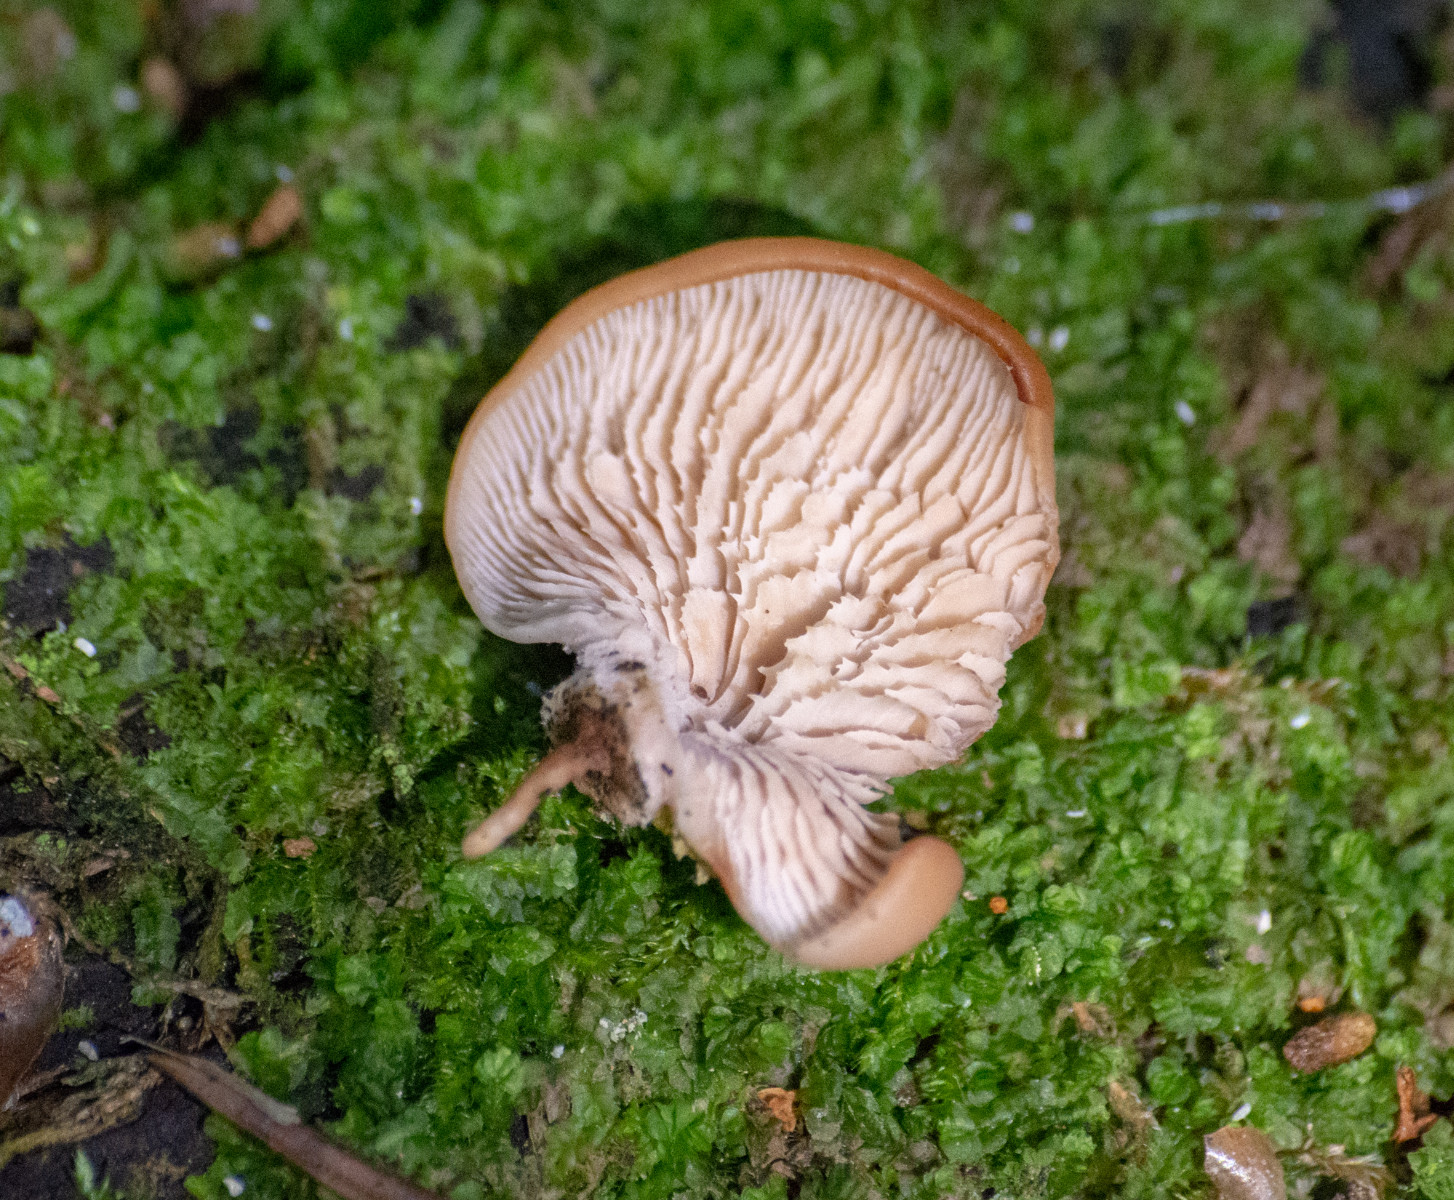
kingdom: Fungi
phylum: Basidiomycota
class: Agaricomycetes
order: Russulales
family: Auriscalpiaceae
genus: Lentinellus
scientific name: Lentinellus
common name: savbladhat
